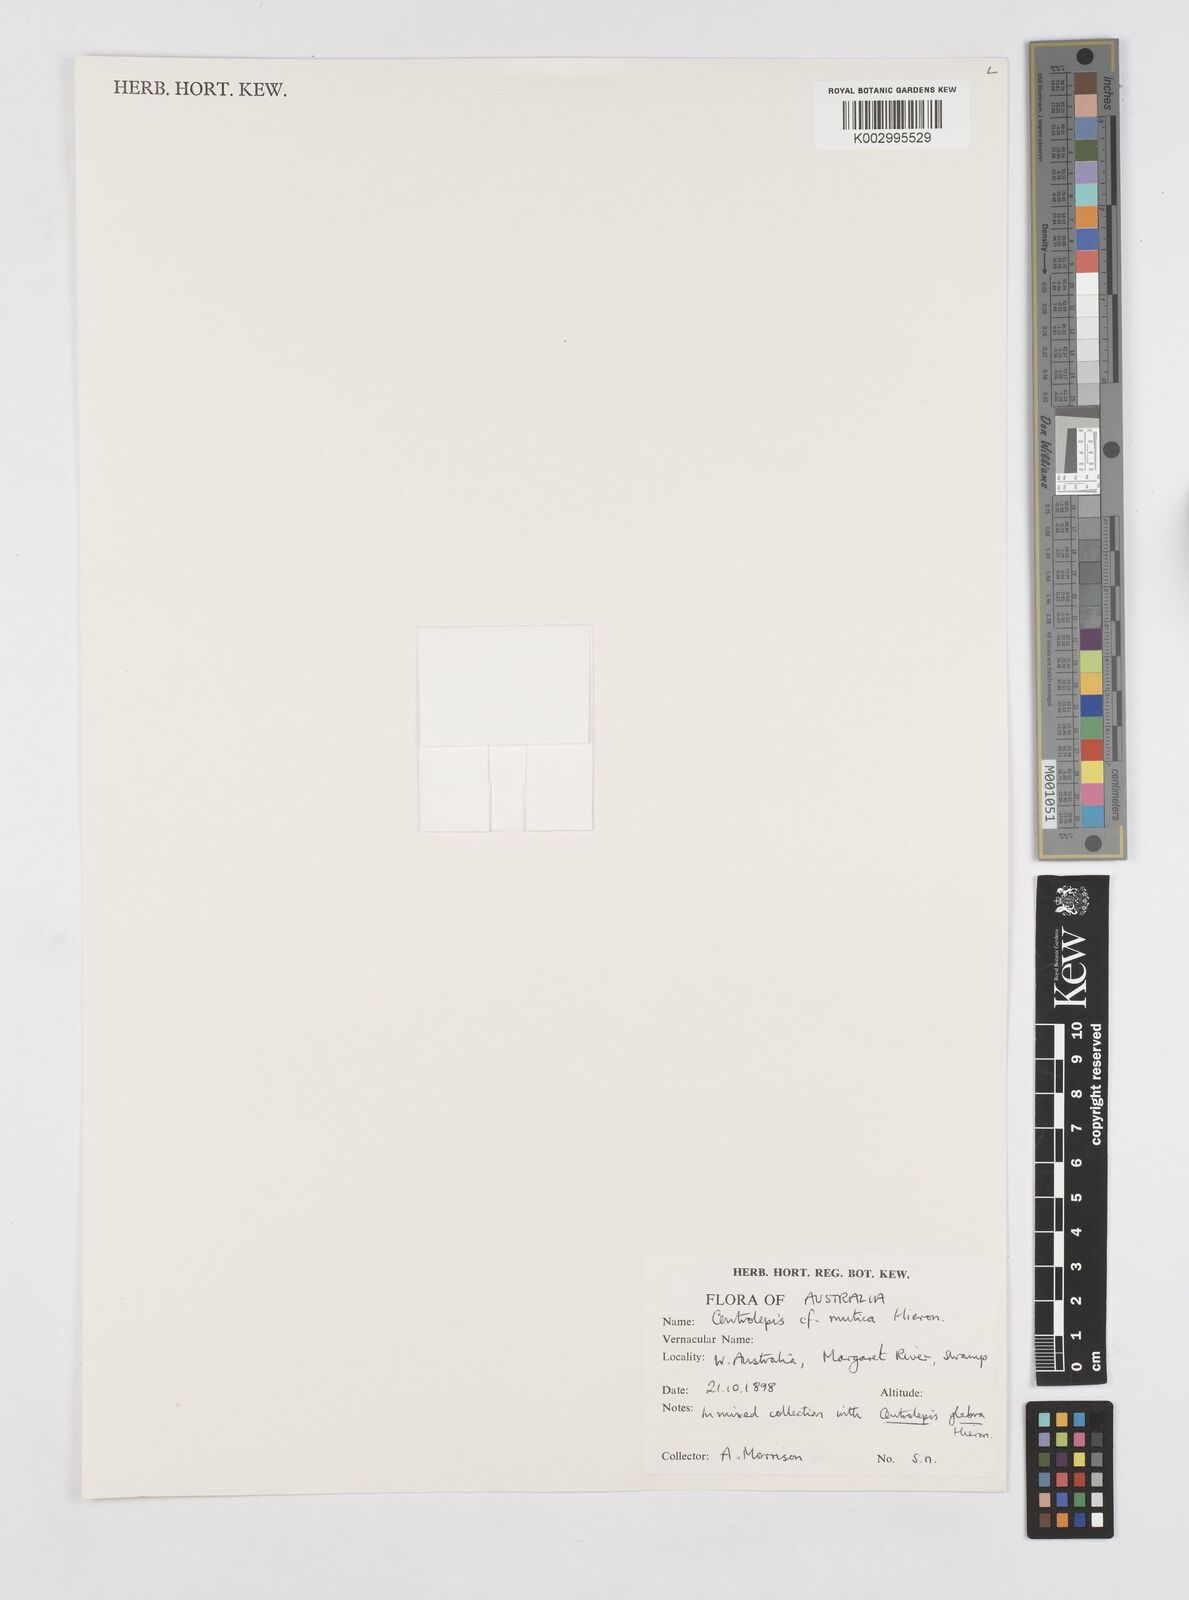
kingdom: Plantae
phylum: Tracheophyta
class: Liliopsida
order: Poales
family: Restionaceae
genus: Centrolepis
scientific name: Centrolepis mutica
